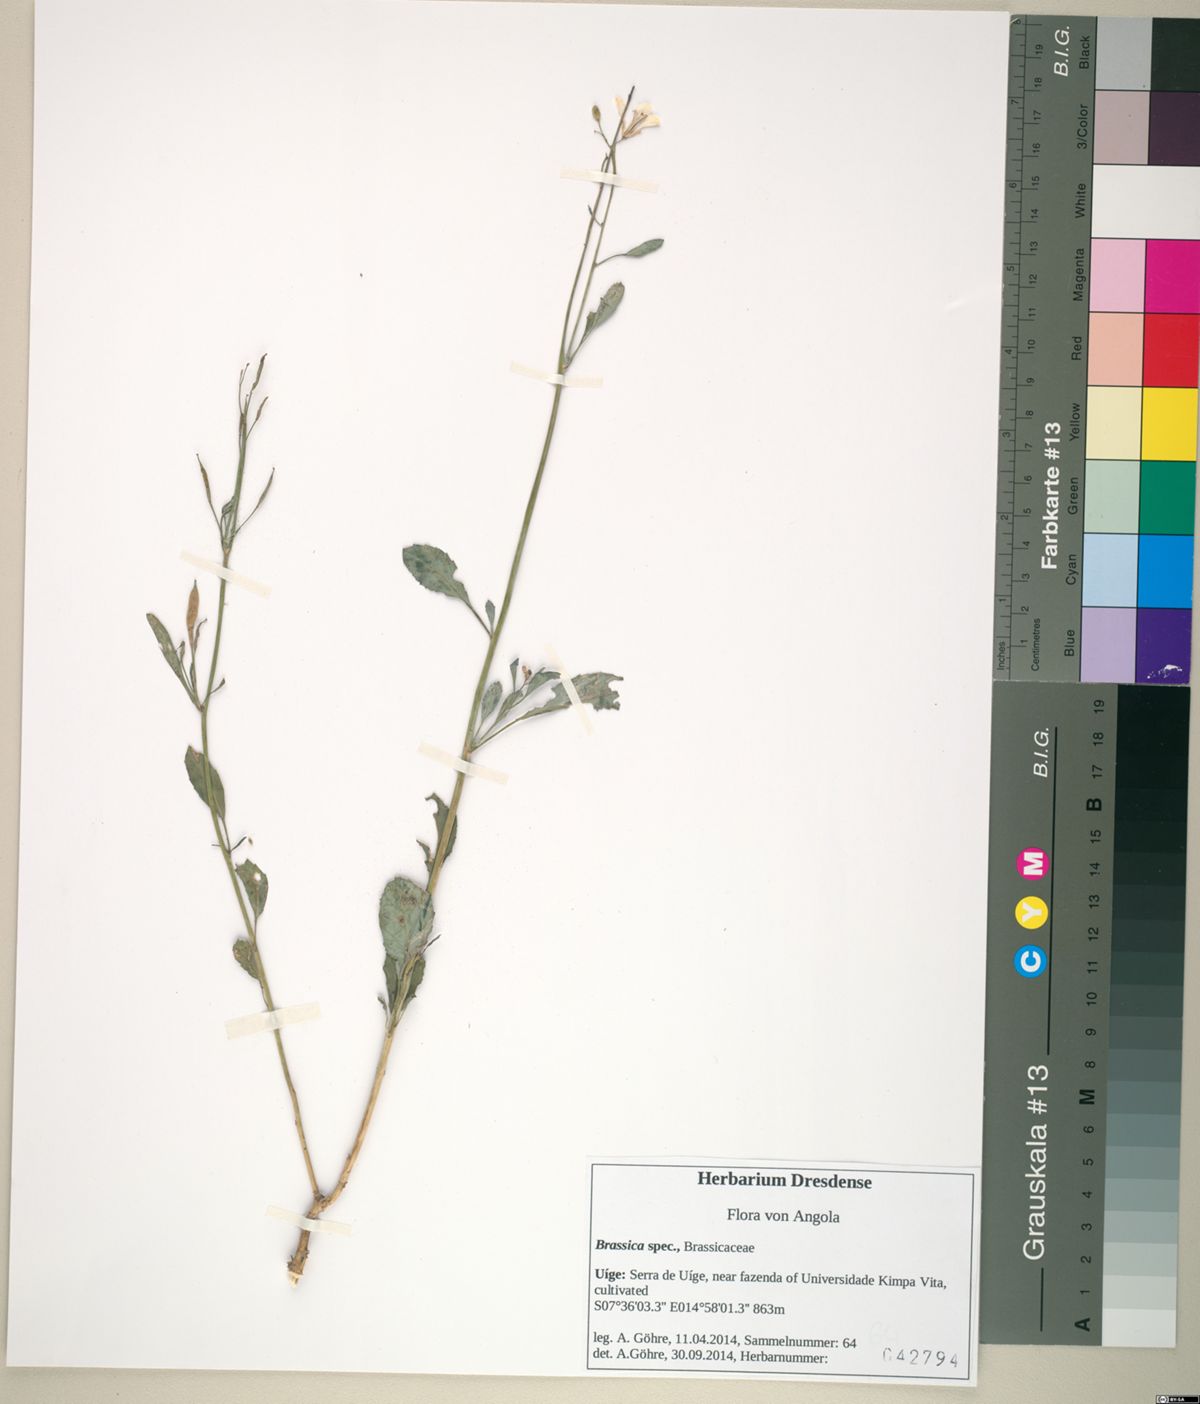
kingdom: Plantae
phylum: Tracheophyta
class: Magnoliopsida
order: Brassicales
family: Brassicaceae
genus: Brassica
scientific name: Brassica
